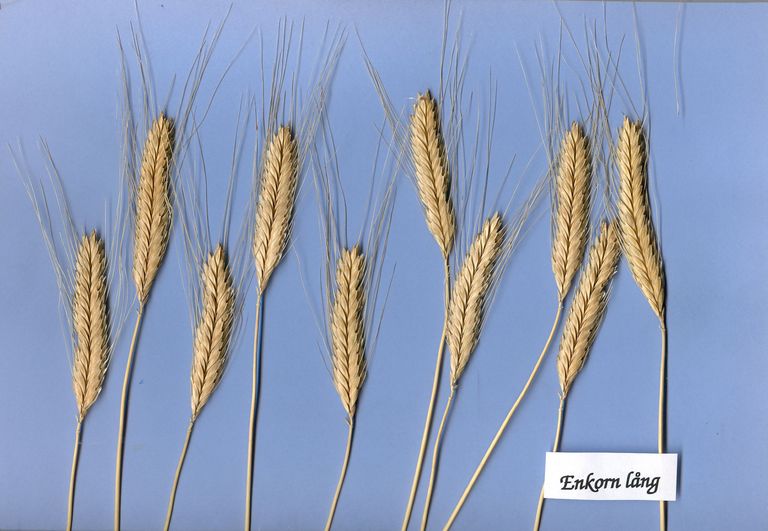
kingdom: Plantae
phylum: Tracheophyta
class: Liliopsida
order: Poales
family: Poaceae
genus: Triticum
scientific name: Triticum monococcum
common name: Einkorn
